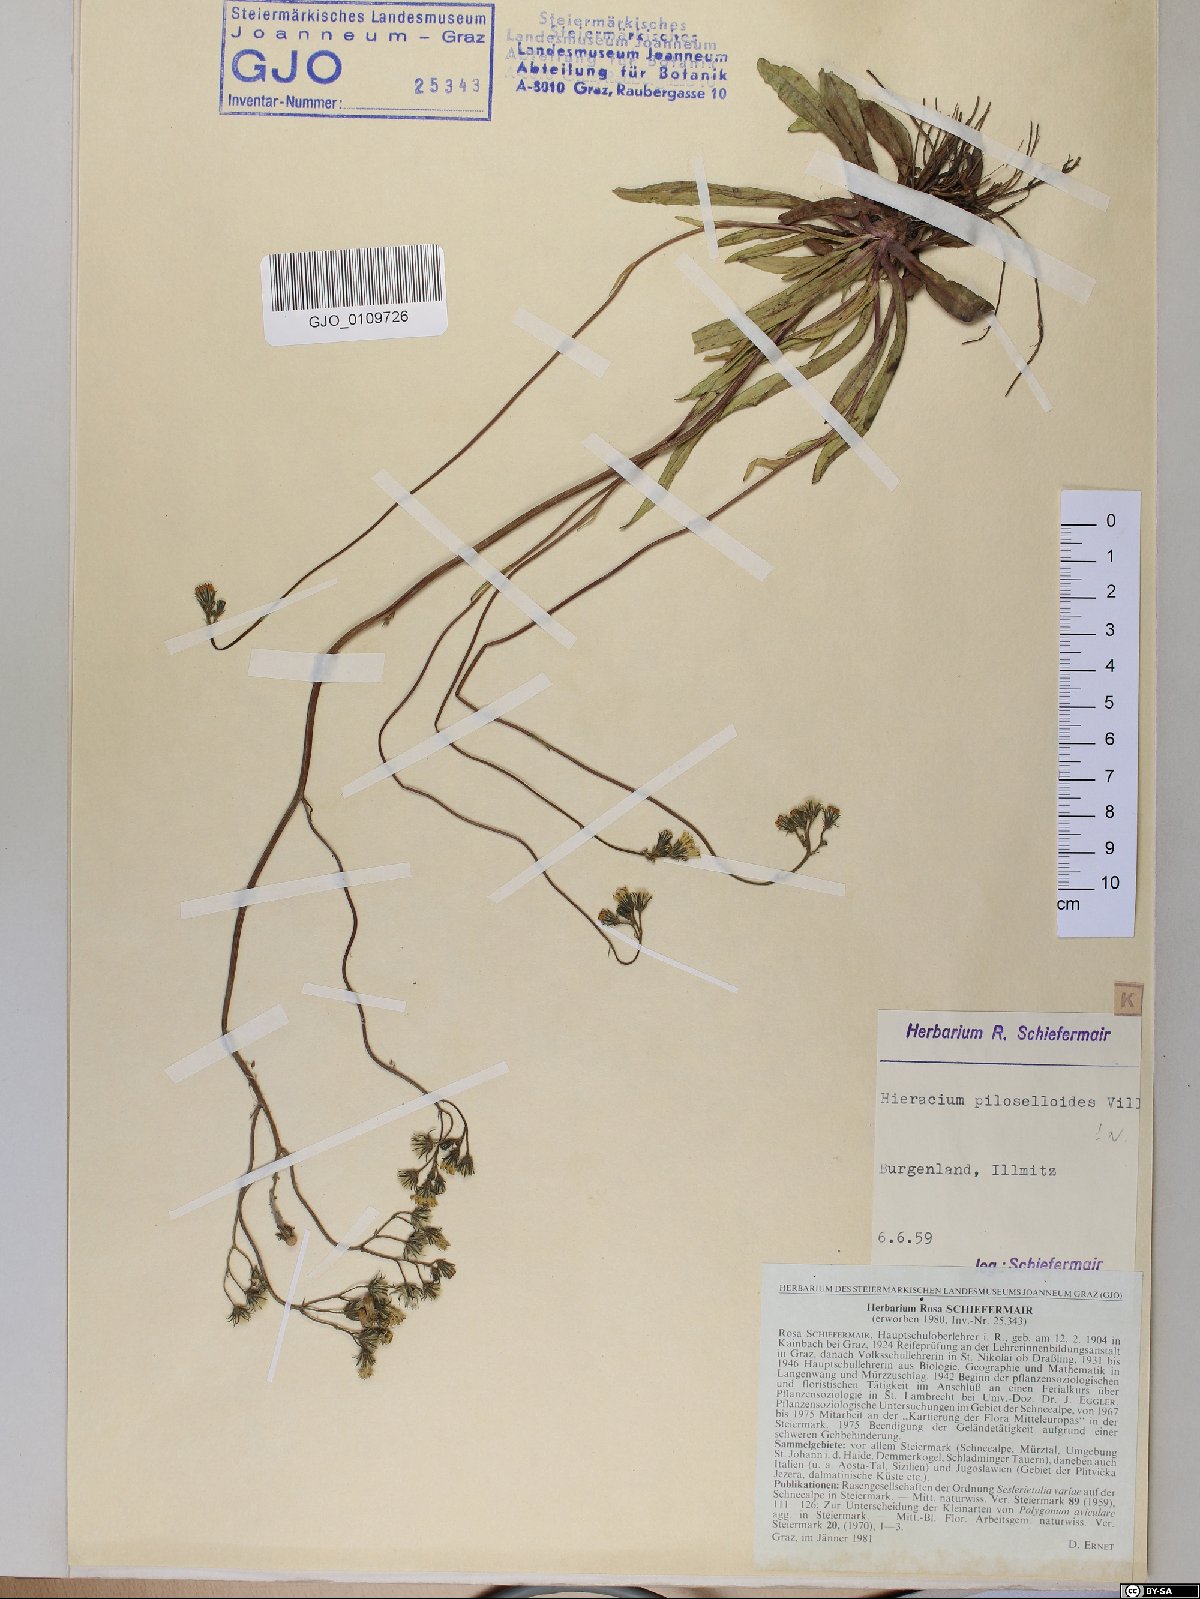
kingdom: Plantae
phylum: Tracheophyta
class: Magnoliopsida
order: Asterales
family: Asteraceae
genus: Pilosella
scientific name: Pilosella piloselloides
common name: Glaucous king-devil
